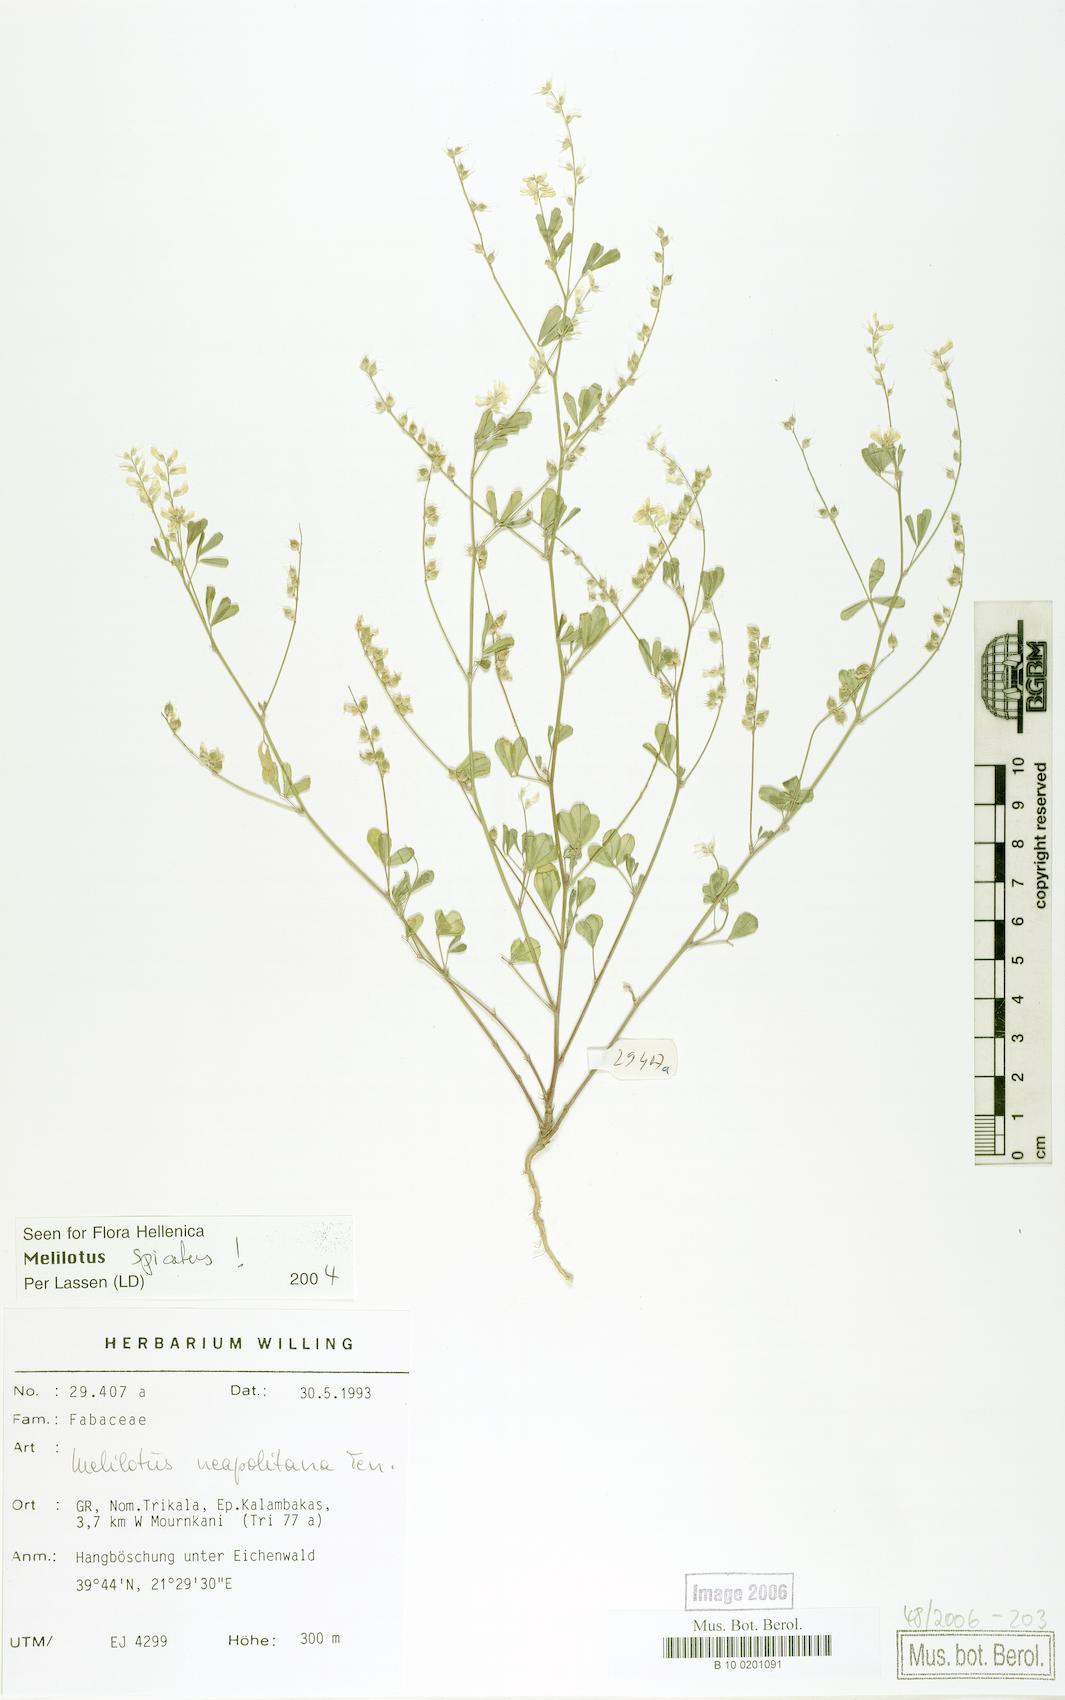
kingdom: Plantae
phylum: Tracheophyta
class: Magnoliopsida
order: Fabales
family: Fabaceae
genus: Melilotus
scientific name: Melilotus neapolitanus
